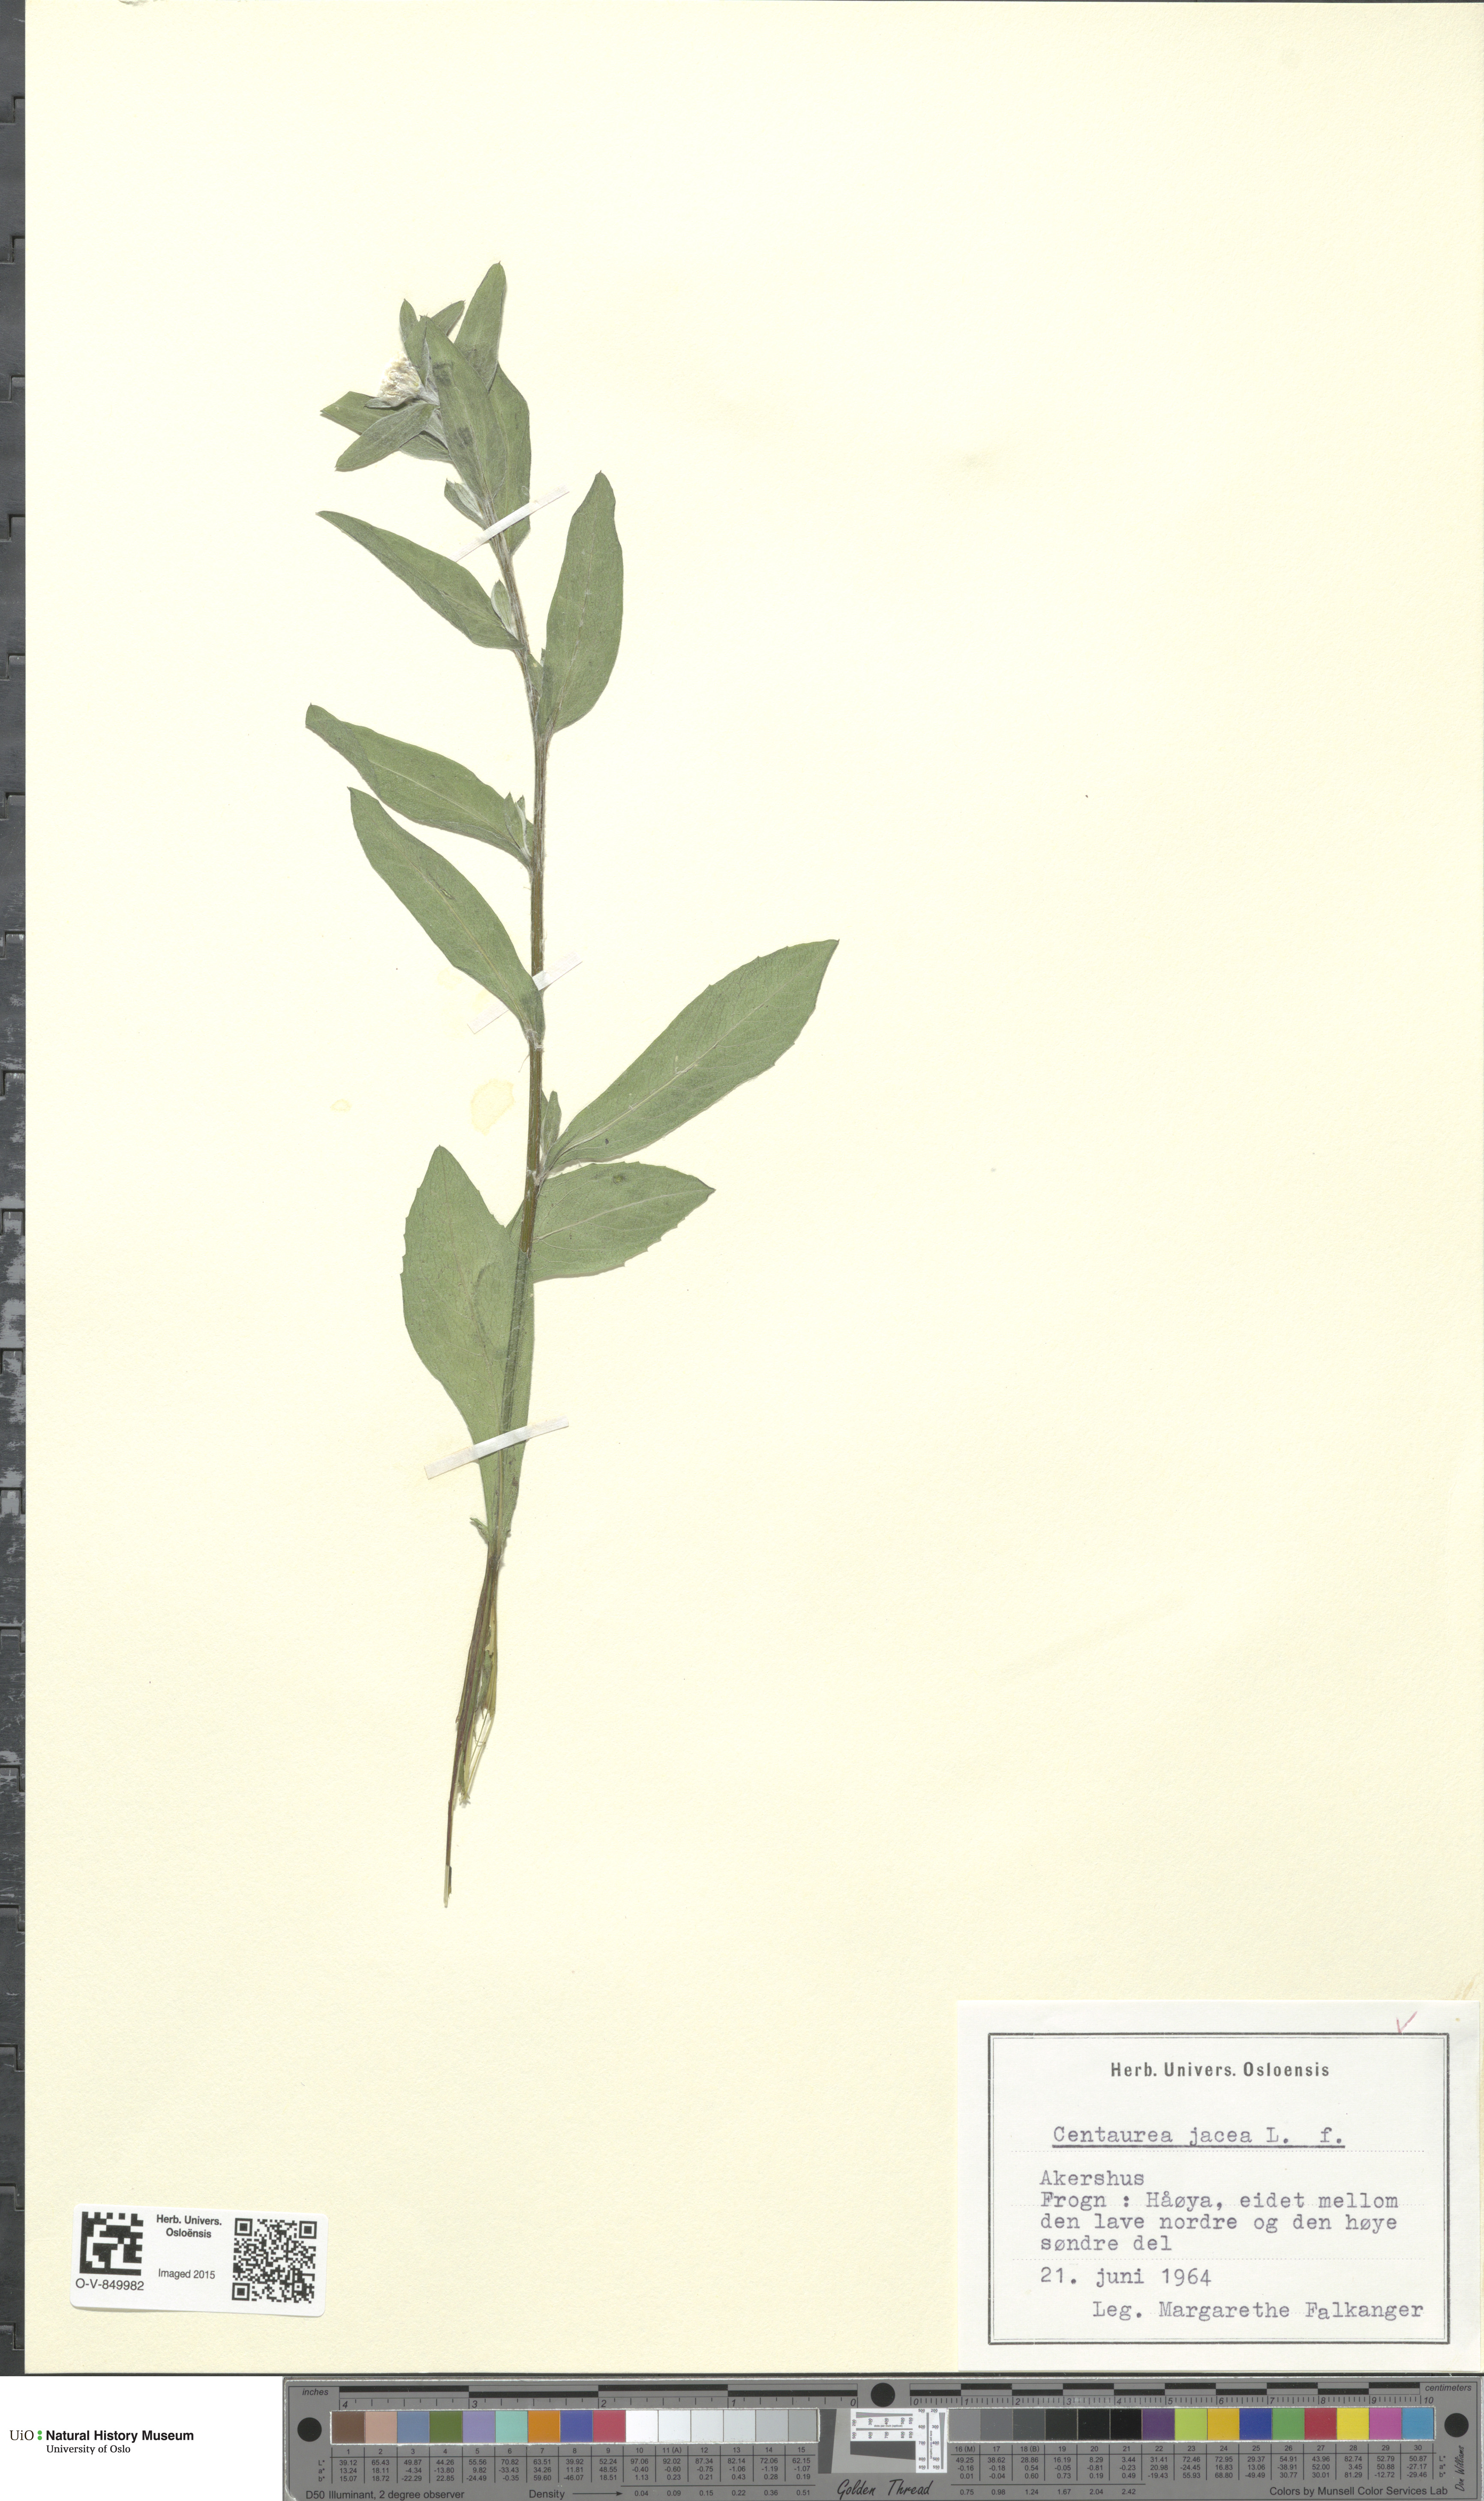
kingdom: Plantae
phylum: Tracheophyta
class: Magnoliopsida
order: Asterales
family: Asteraceae
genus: Centaurea
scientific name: Centaurea jacea
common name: Brown knapweed
